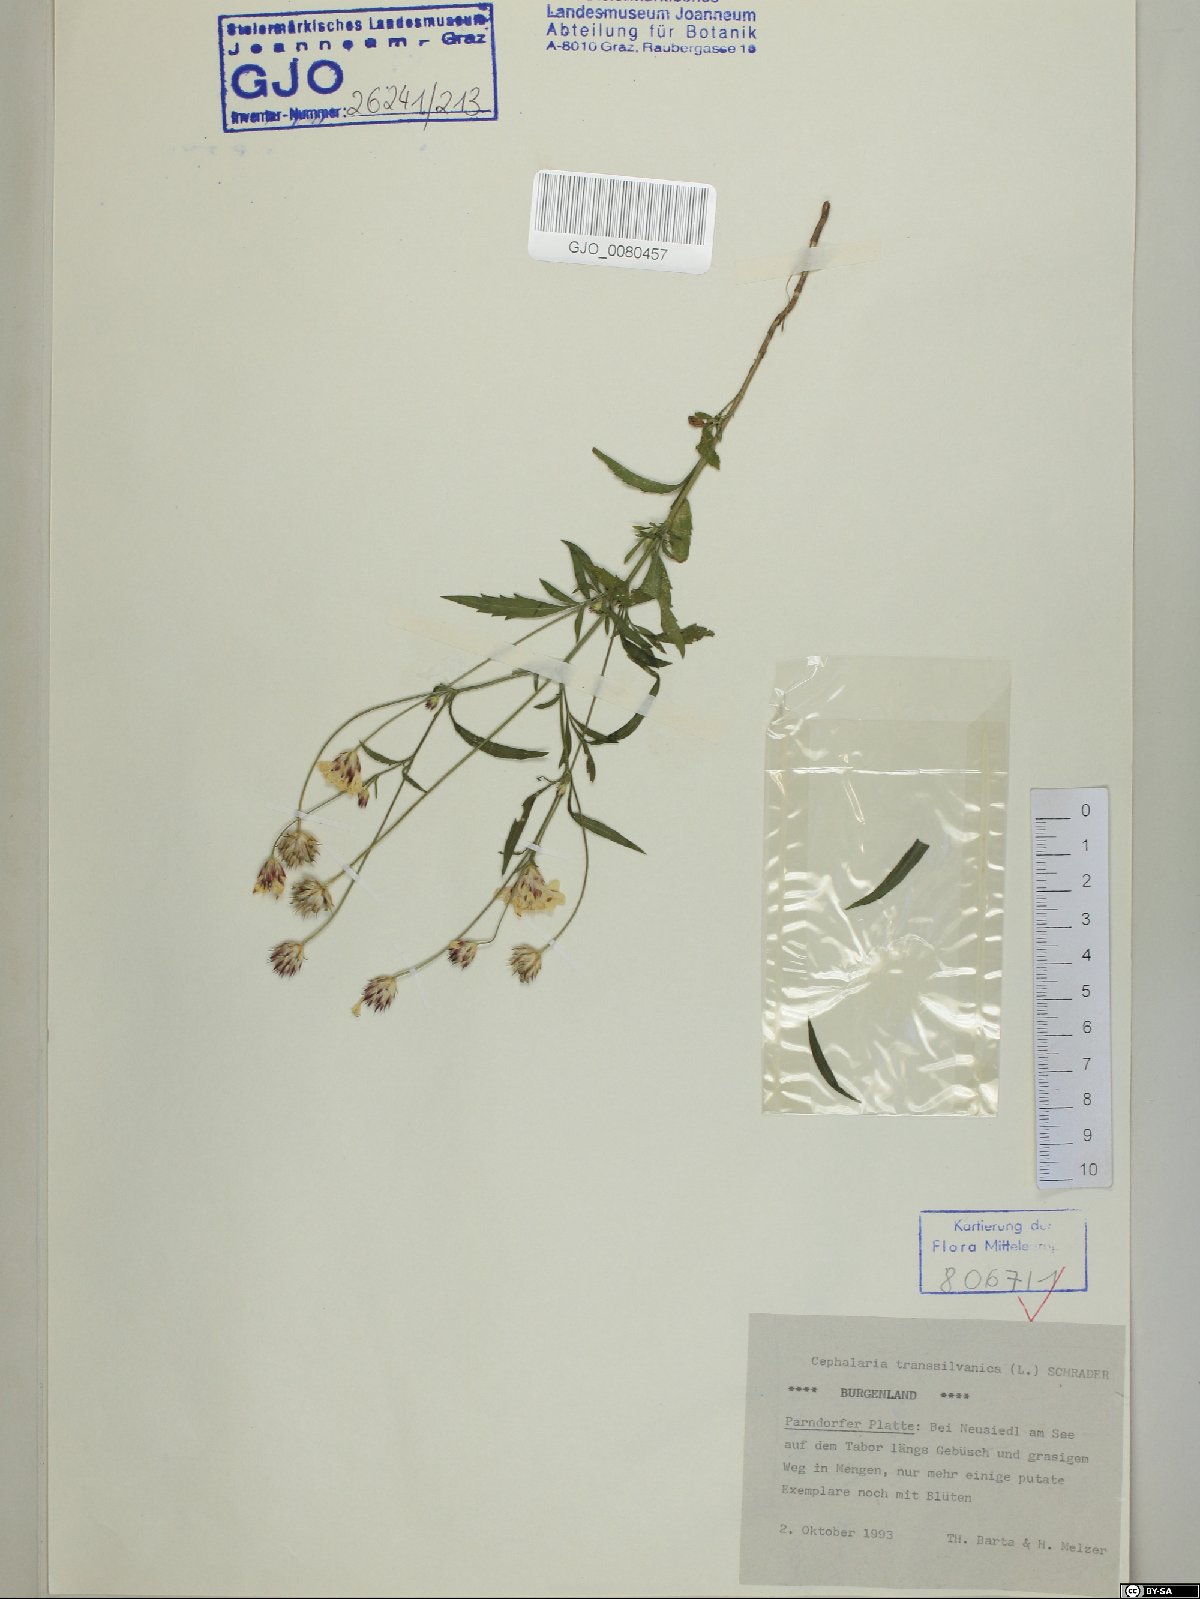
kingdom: Plantae
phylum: Tracheophyta
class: Magnoliopsida
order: Dipsacales
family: Caprifoliaceae
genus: Cephalaria
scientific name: Cephalaria transsylvanica
